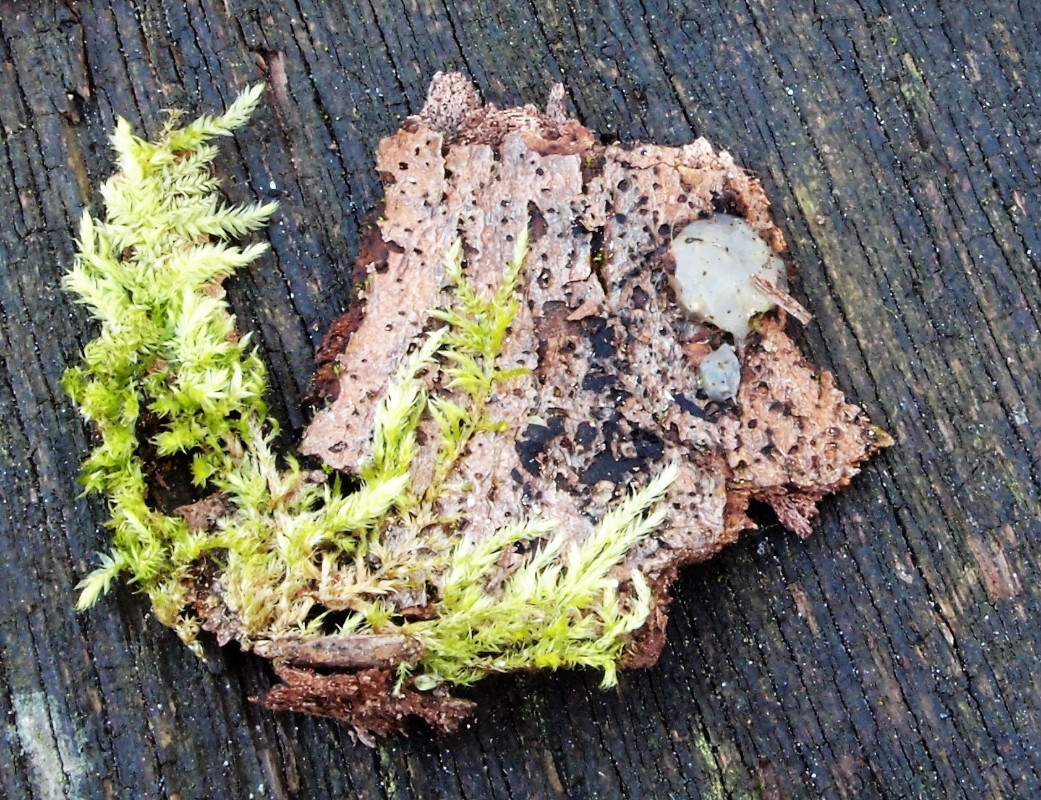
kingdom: Fungi
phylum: Basidiomycota
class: Agaricomycetes
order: Auriculariales
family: Hyaloriaceae
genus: Myxarium
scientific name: Myxarium nucleatum
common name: klar bævretop
